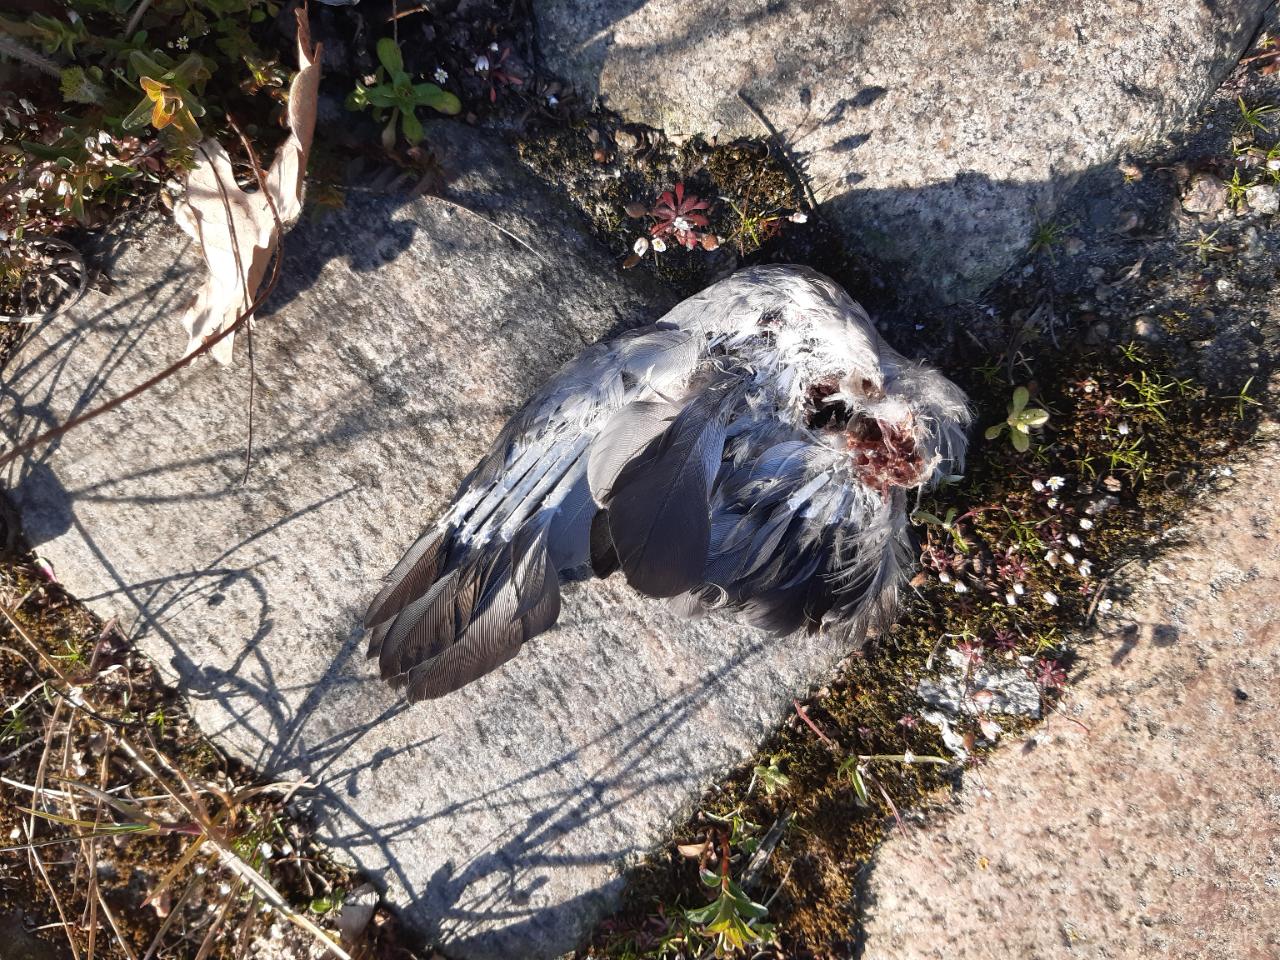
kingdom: Animalia
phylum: Chordata
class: Aves
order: Columbiformes
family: Columbidae
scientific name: Columbidae
